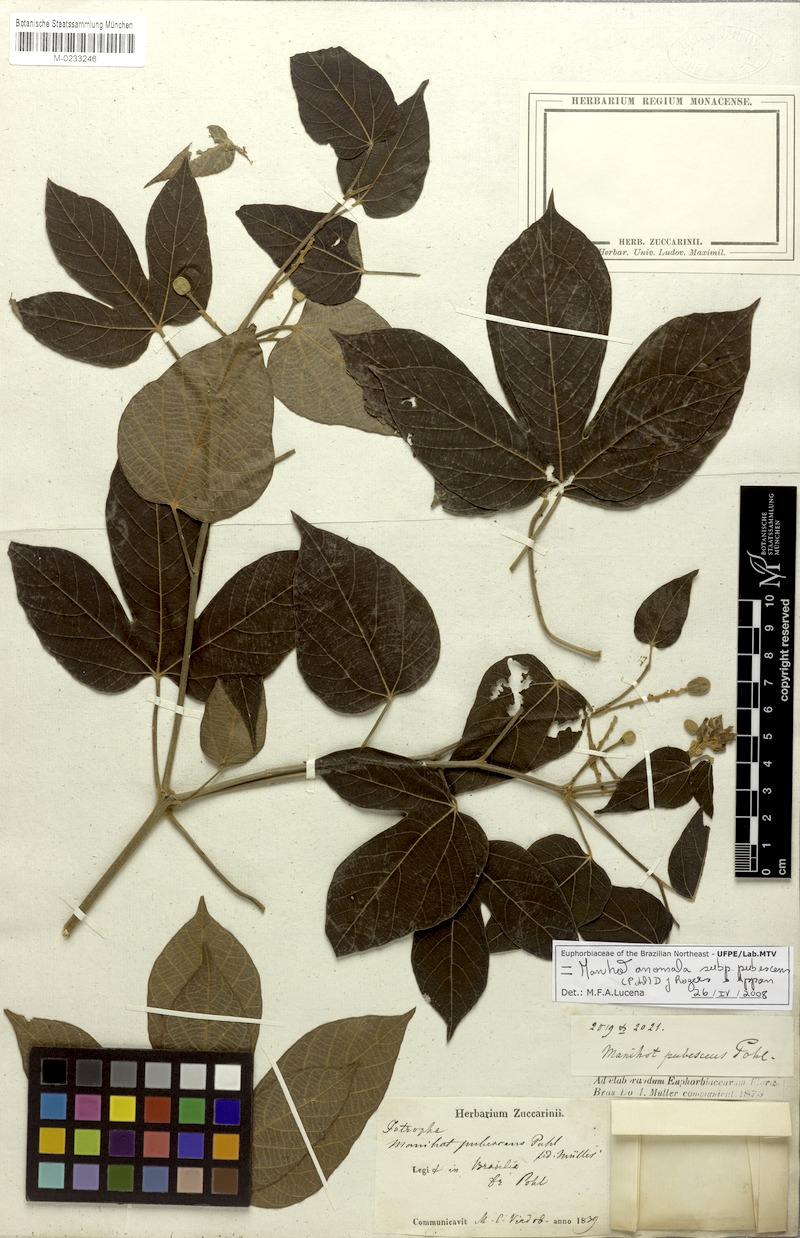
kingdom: Plantae
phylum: Tracheophyta
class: Magnoliopsida
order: Malpighiales
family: Euphorbiaceae
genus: Manihot
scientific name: Manihot anomala
